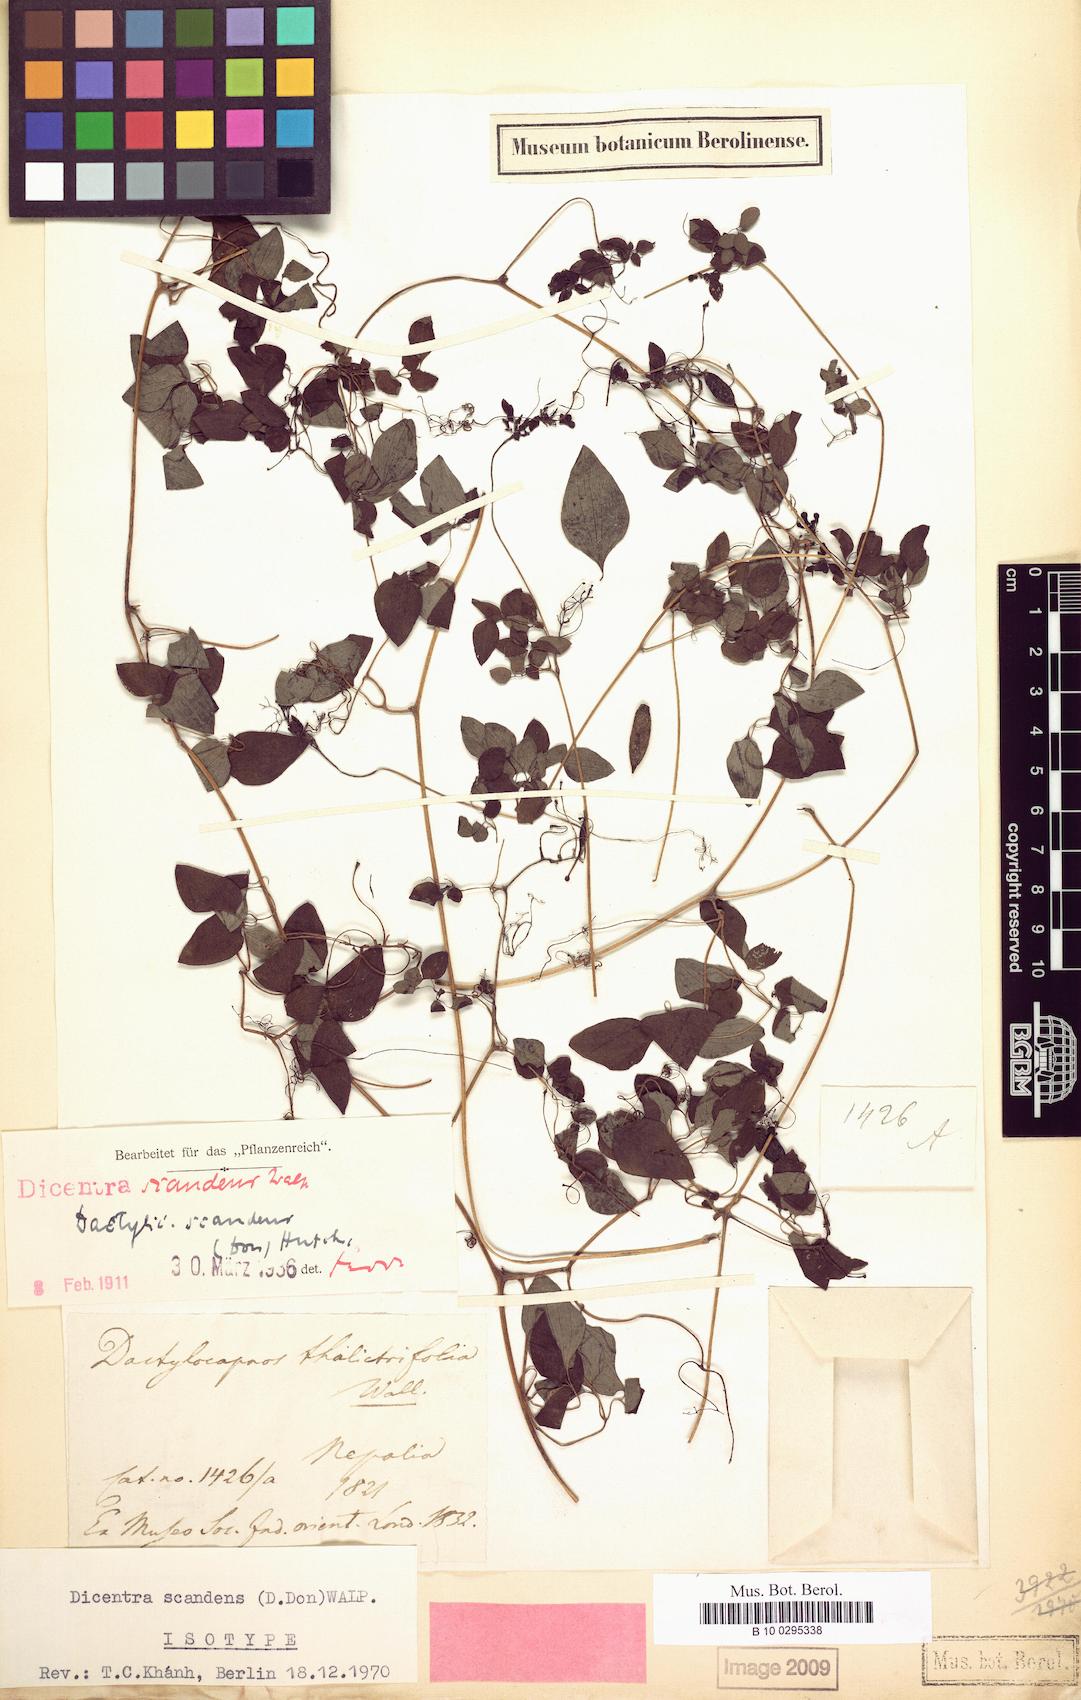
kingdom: Plantae
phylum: Tracheophyta
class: Magnoliopsida
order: Ranunculales
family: Papaveraceae
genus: Dactylicapnos
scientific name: Dactylicapnos scandens
